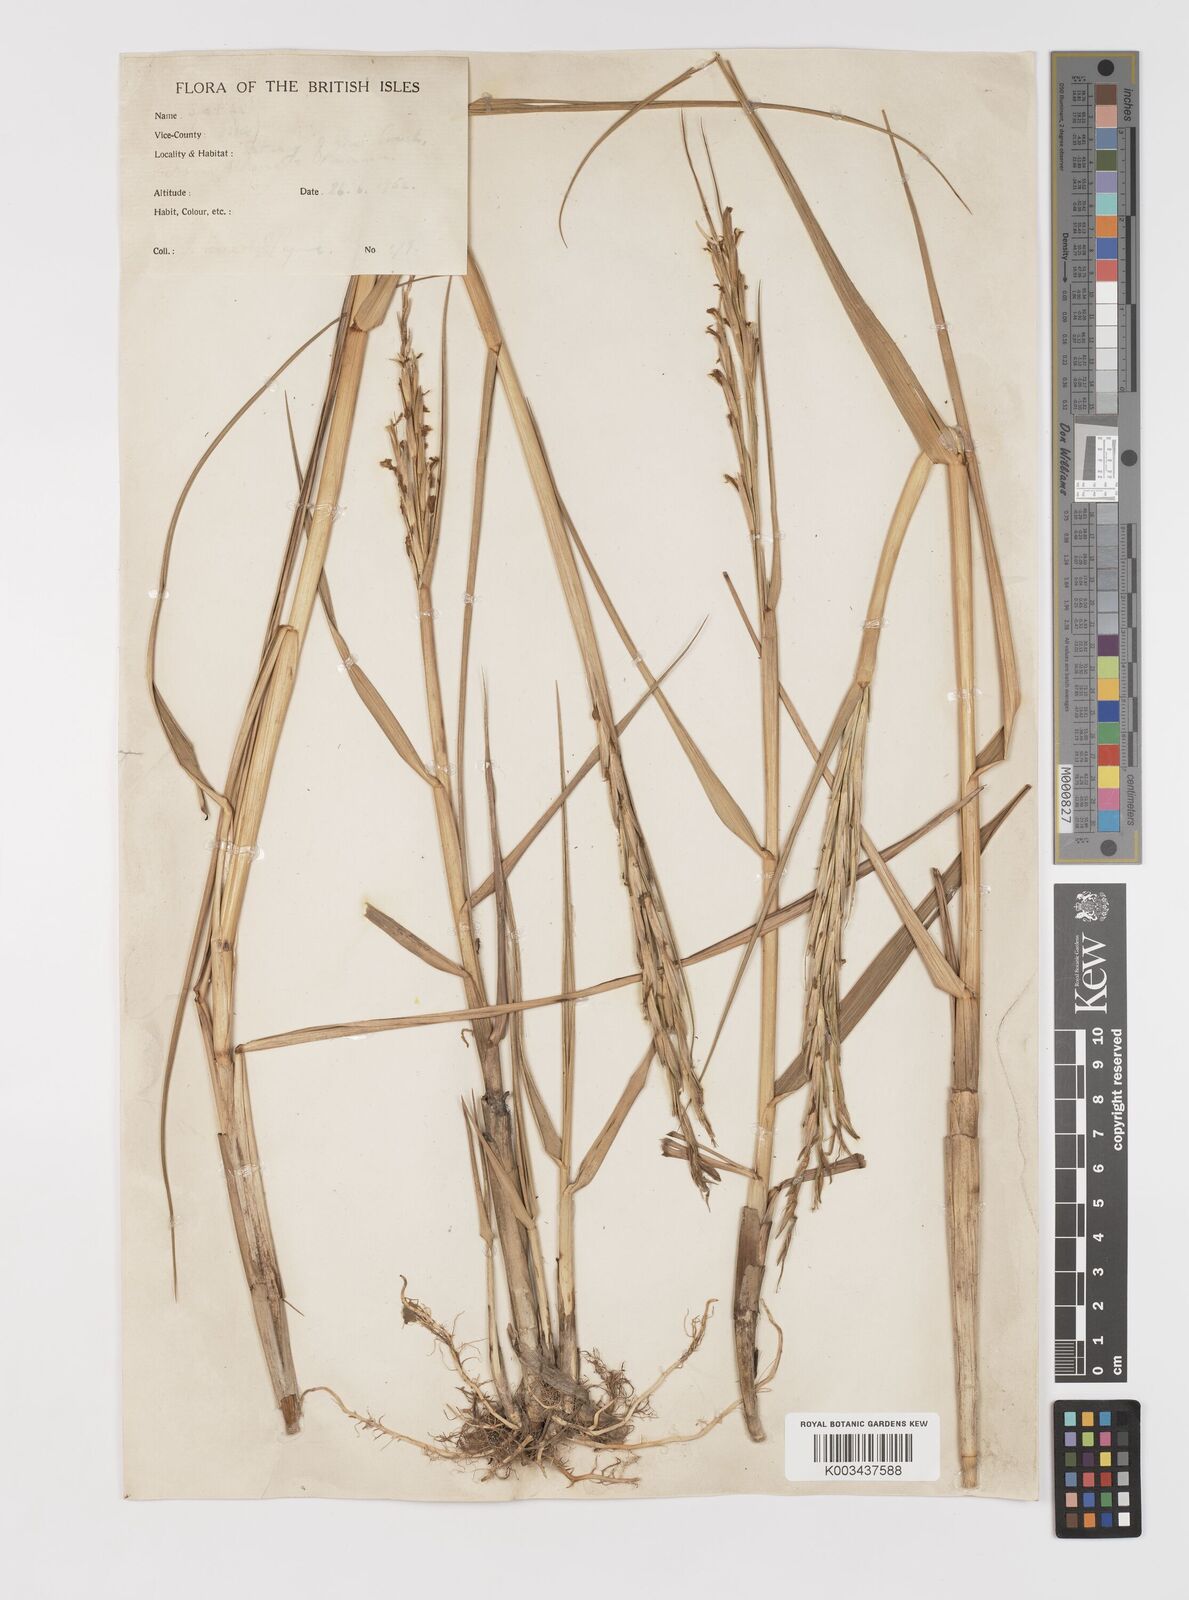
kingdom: Plantae
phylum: Tracheophyta
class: Liliopsida
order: Poales
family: Poaceae
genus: Sporobolus
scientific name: Sporobolus anglicus
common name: English cordgrass
